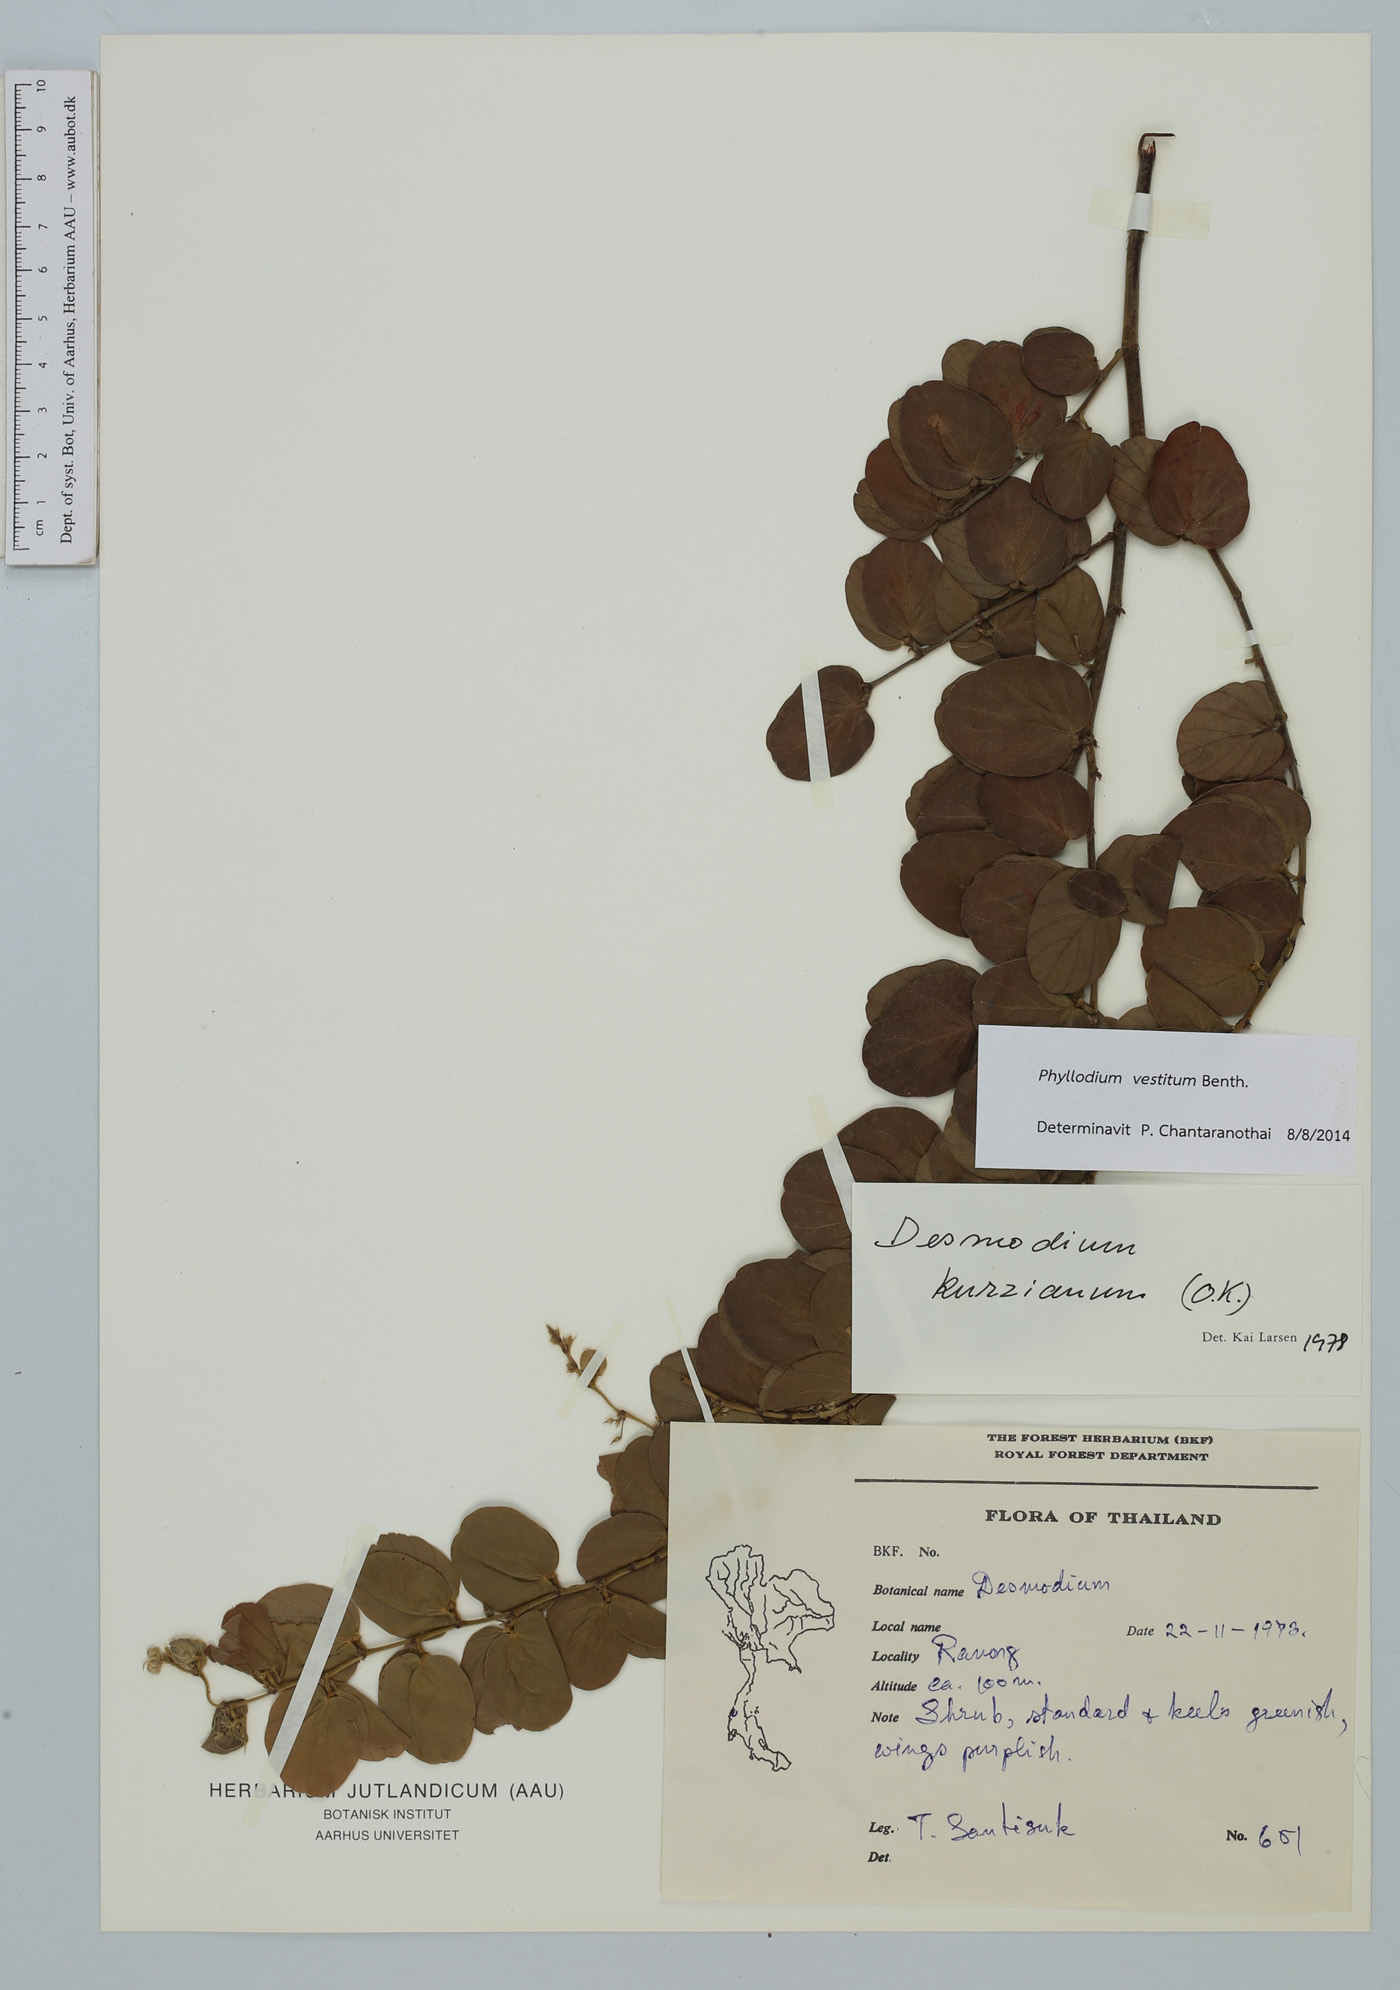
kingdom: Plantae
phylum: Tracheophyta
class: Magnoliopsida
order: Fabales
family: Fabaceae
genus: Phyllodium
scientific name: Phyllodium vestitum
